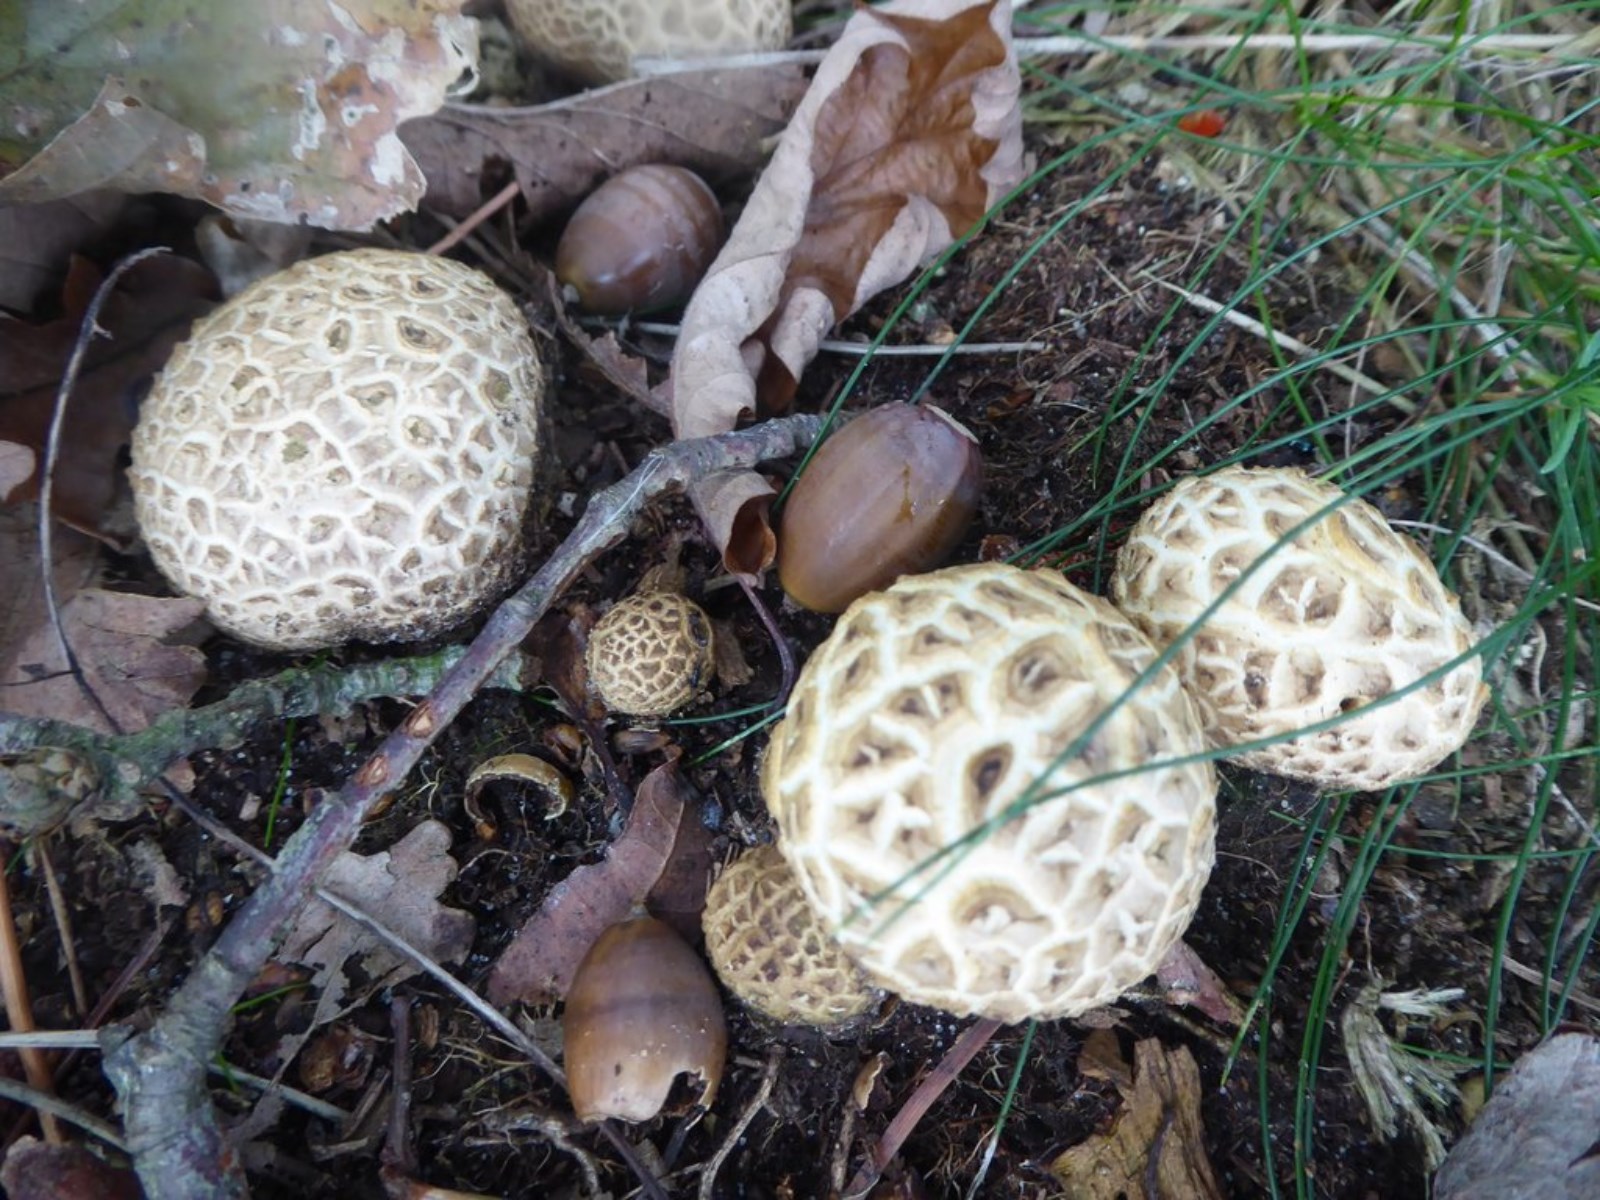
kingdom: Fungi
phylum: Basidiomycota
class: Agaricomycetes
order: Boletales
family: Sclerodermataceae
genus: Scleroderma
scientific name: Scleroderma citrinum
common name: almindelig bruskbold
